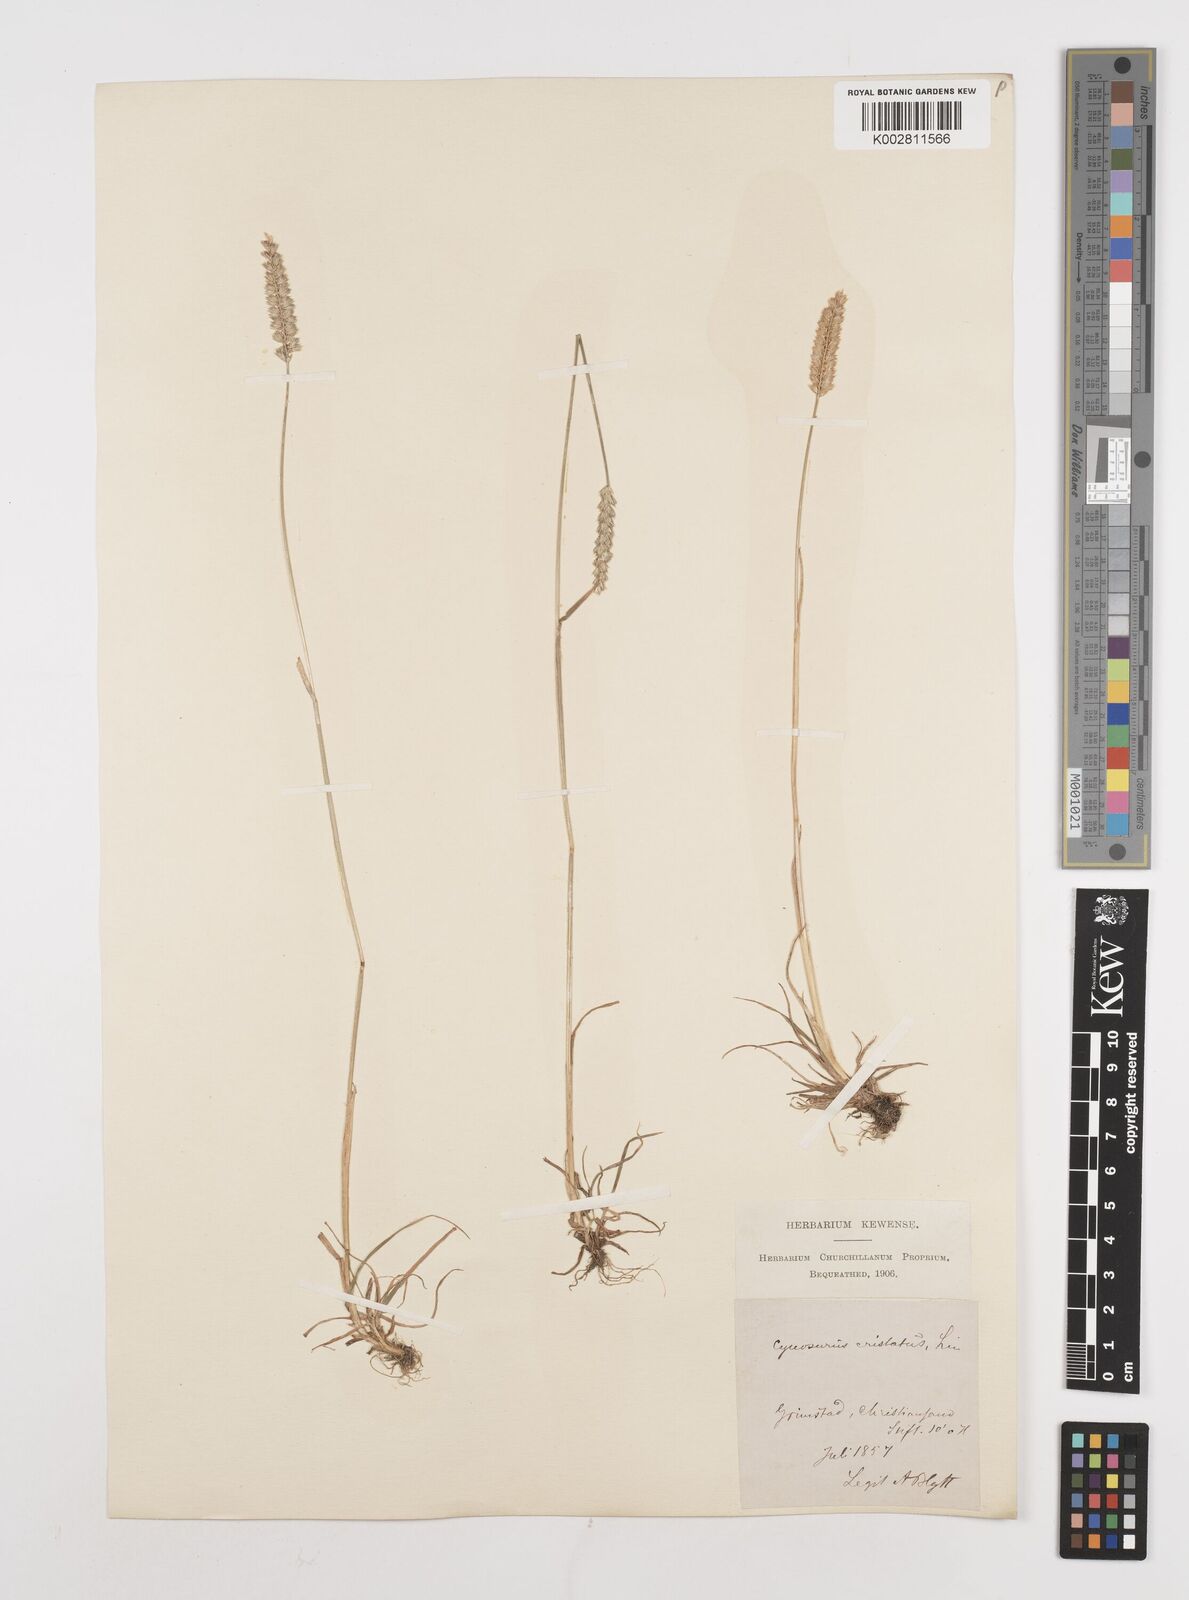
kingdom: Plantae
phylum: Tracheophyta
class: Liliopsida
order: Poales
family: Poaceae
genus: Cynosurus
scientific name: Cynosurus cristatus
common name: Crested dog's-tail
